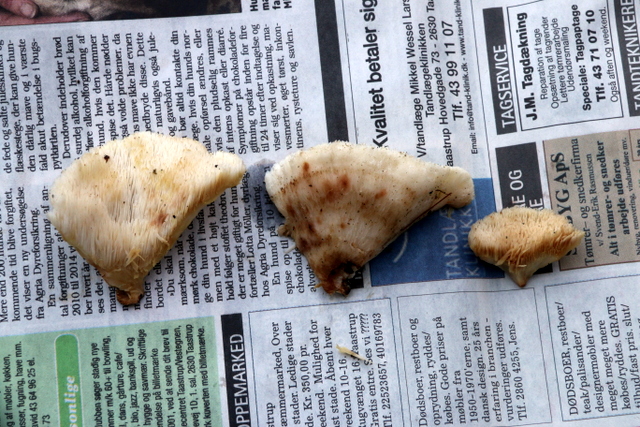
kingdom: Fungi
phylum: Basidiomycota
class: Agaricomycetes
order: Polyporales
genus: Fuscopostia
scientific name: Fuscopostia fragilis
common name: brunende kødporesvamp
